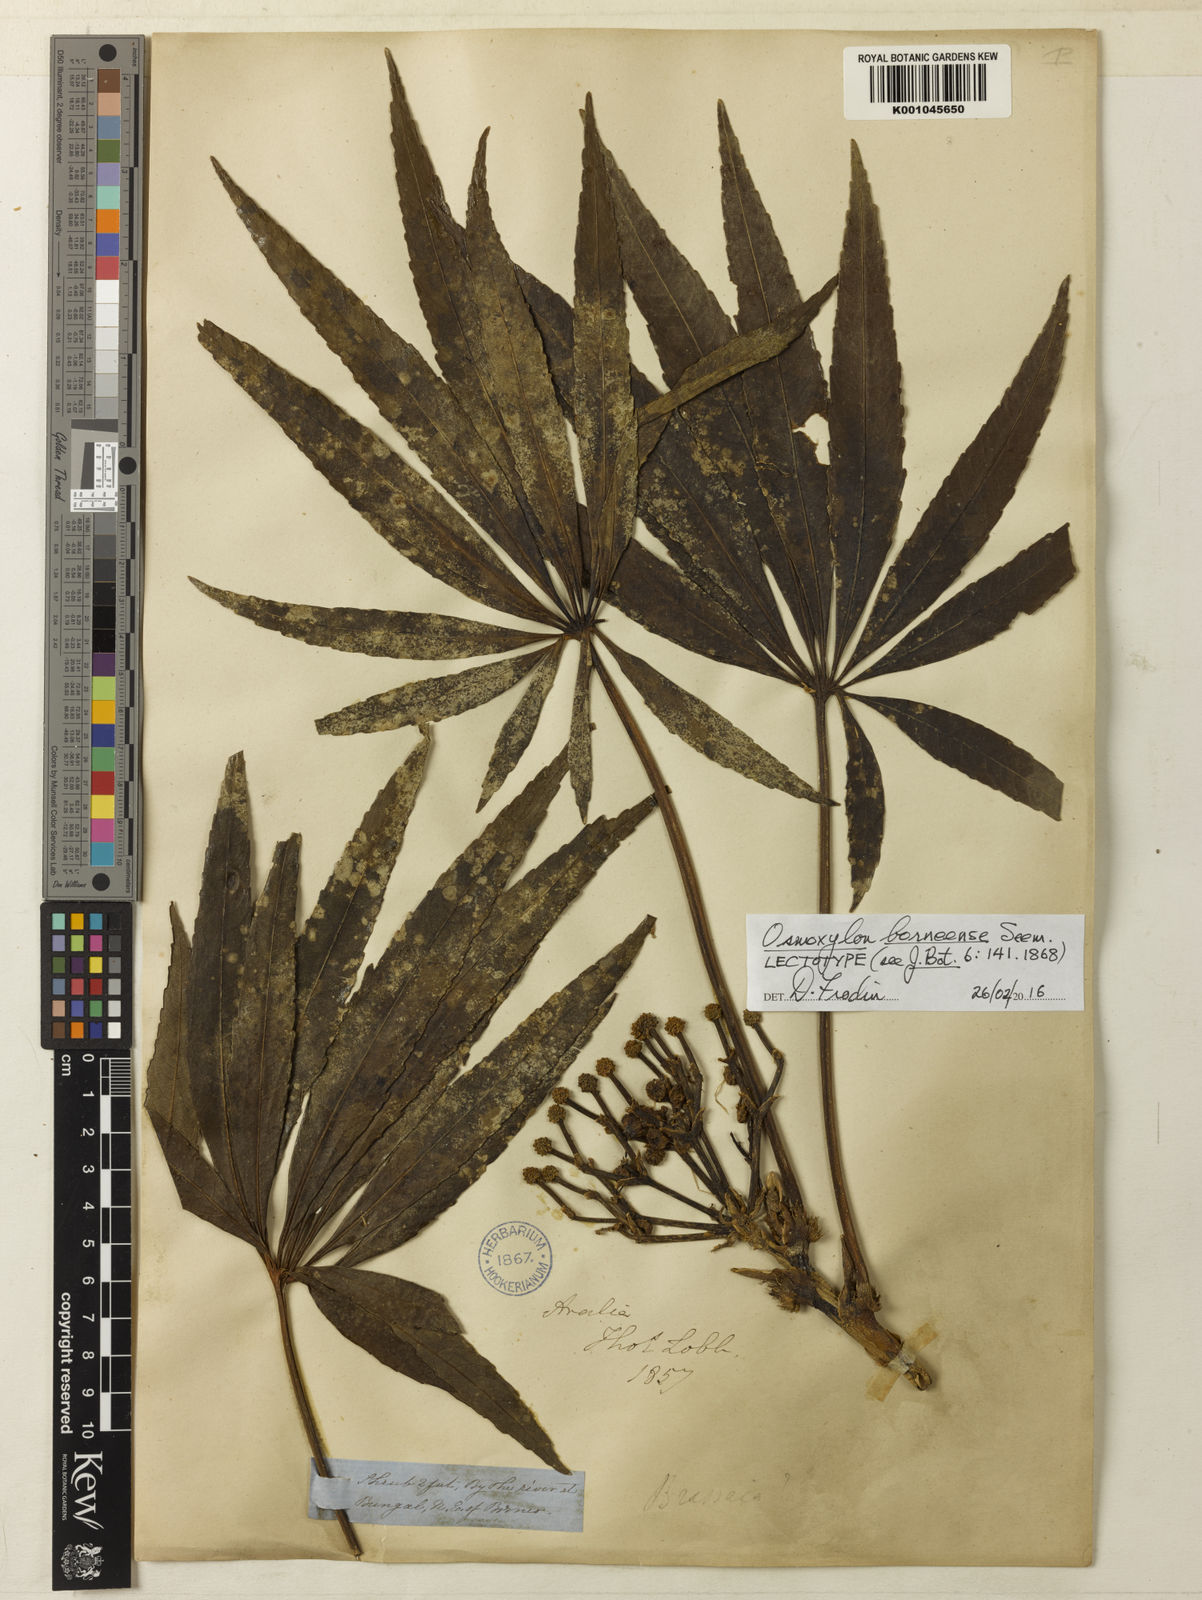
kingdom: Plantae
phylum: Tracheophyta
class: Magnoliopsida
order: Apiales
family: Araliaceae
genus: Osmoxylon
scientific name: Osmoxylon borneense
